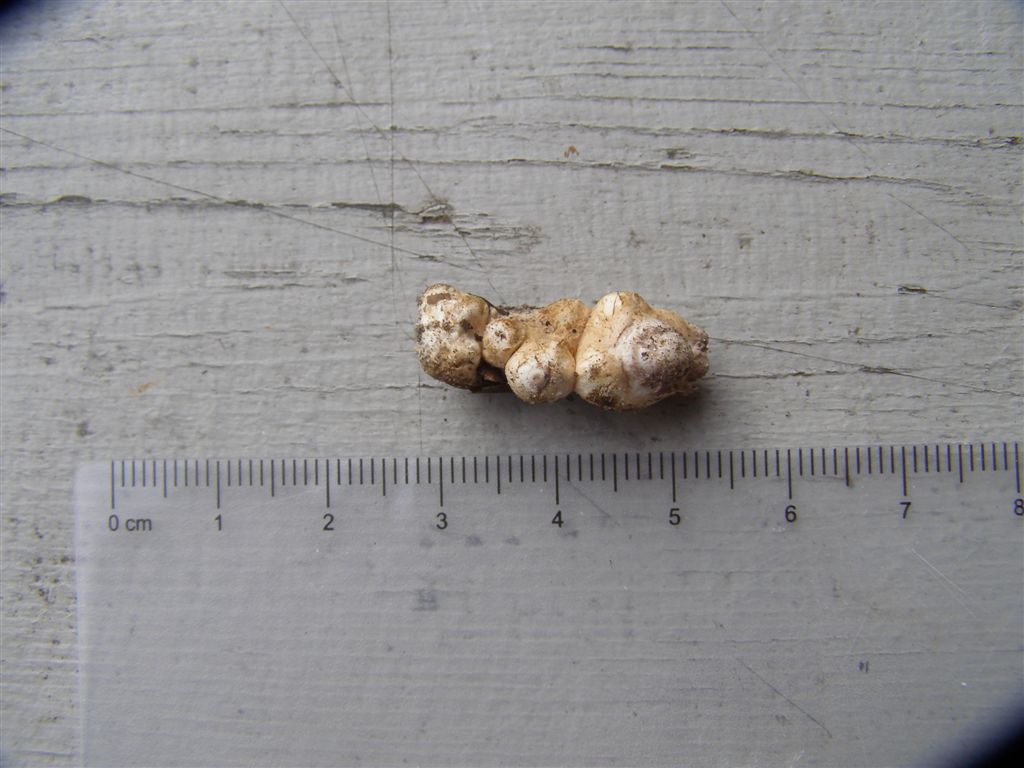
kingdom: Fungi
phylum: Basidiomycota
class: Agaricomycetes
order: Agaricales
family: Squamanitaceae
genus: Dissoderma
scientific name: Dissoderma odoratum
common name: vellugtende knoldfod
